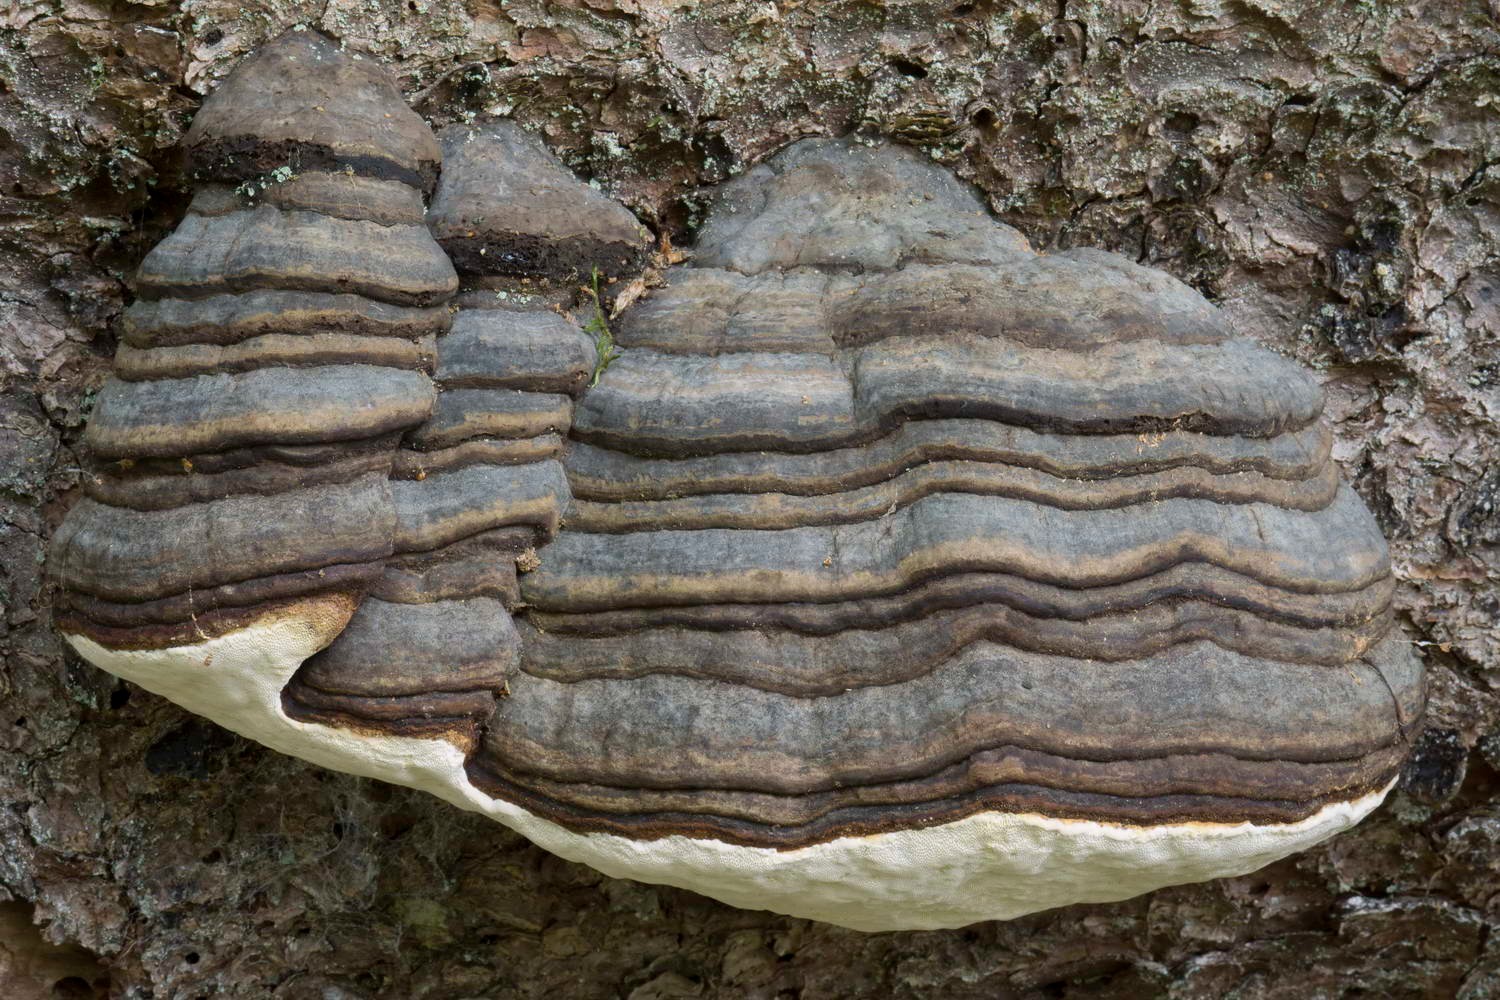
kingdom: Fungi
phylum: Basidiomycota
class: Agaricomycetes
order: Polyporales
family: Fomitopsidaceae
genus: Fomitopsis
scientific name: Fomitopsis pinicola
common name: randbæltet hovporesvamp
